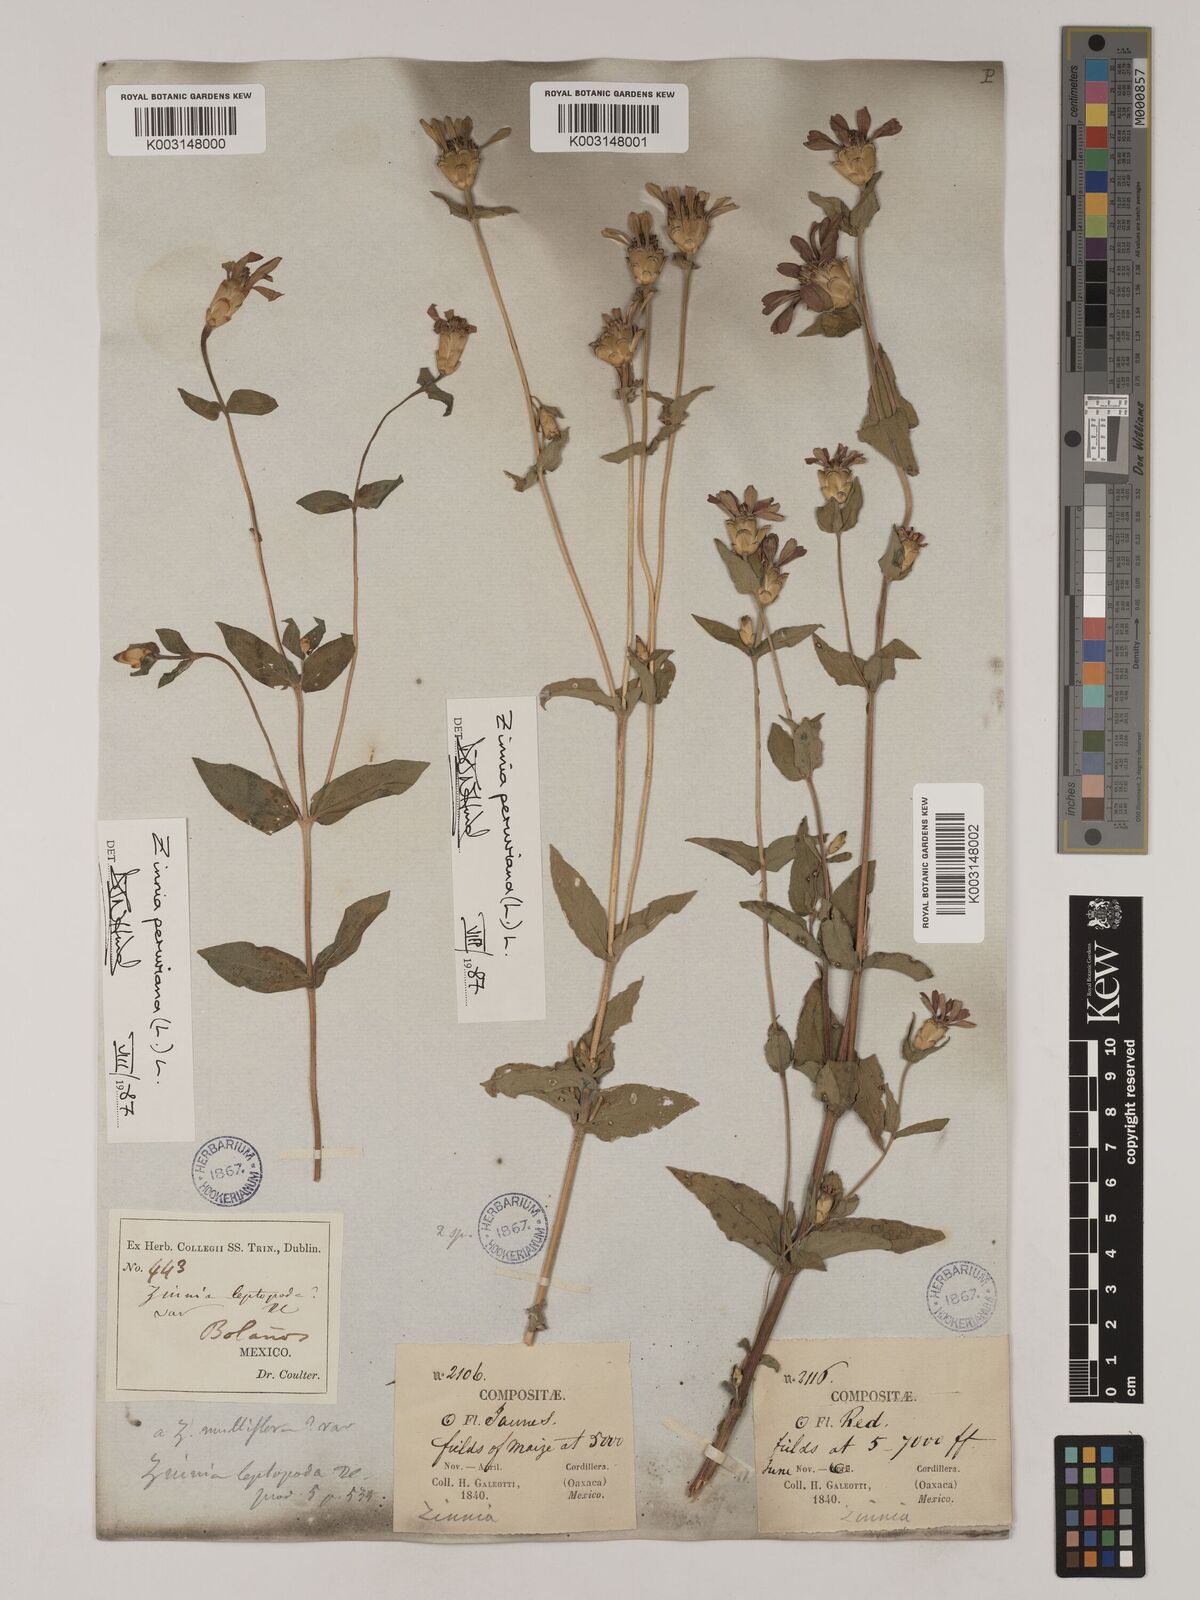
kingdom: Plantae
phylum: Tracheophyta
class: Magnoliopsida
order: Asterales
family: Asteraceae
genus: Zinnia
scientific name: Zinnia peruviana
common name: Peruvian zinnia
